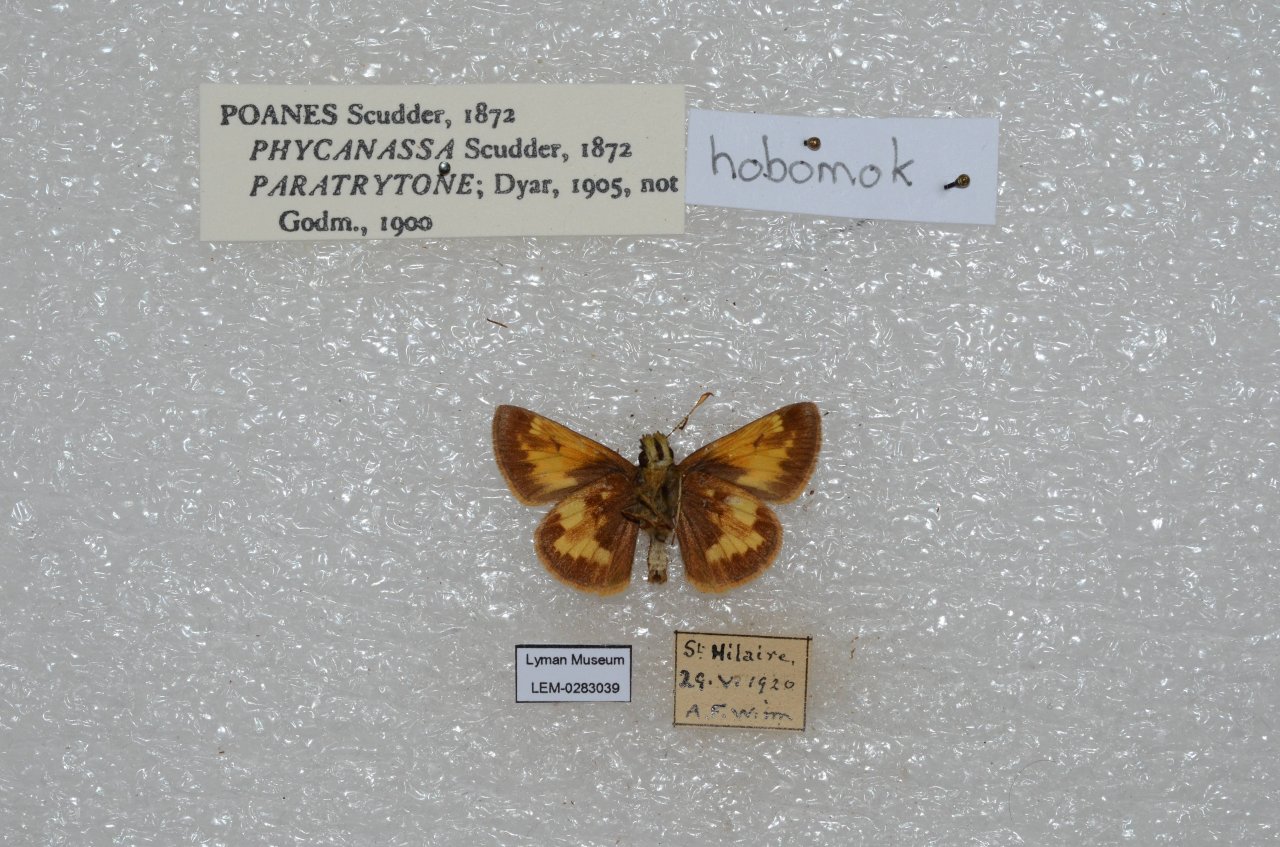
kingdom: Animalia
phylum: Arthropoda
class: Insecta
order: Lepidoptera
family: Hesperiidae
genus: Lon
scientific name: Lon hobomok
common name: Hobomok Skipper
